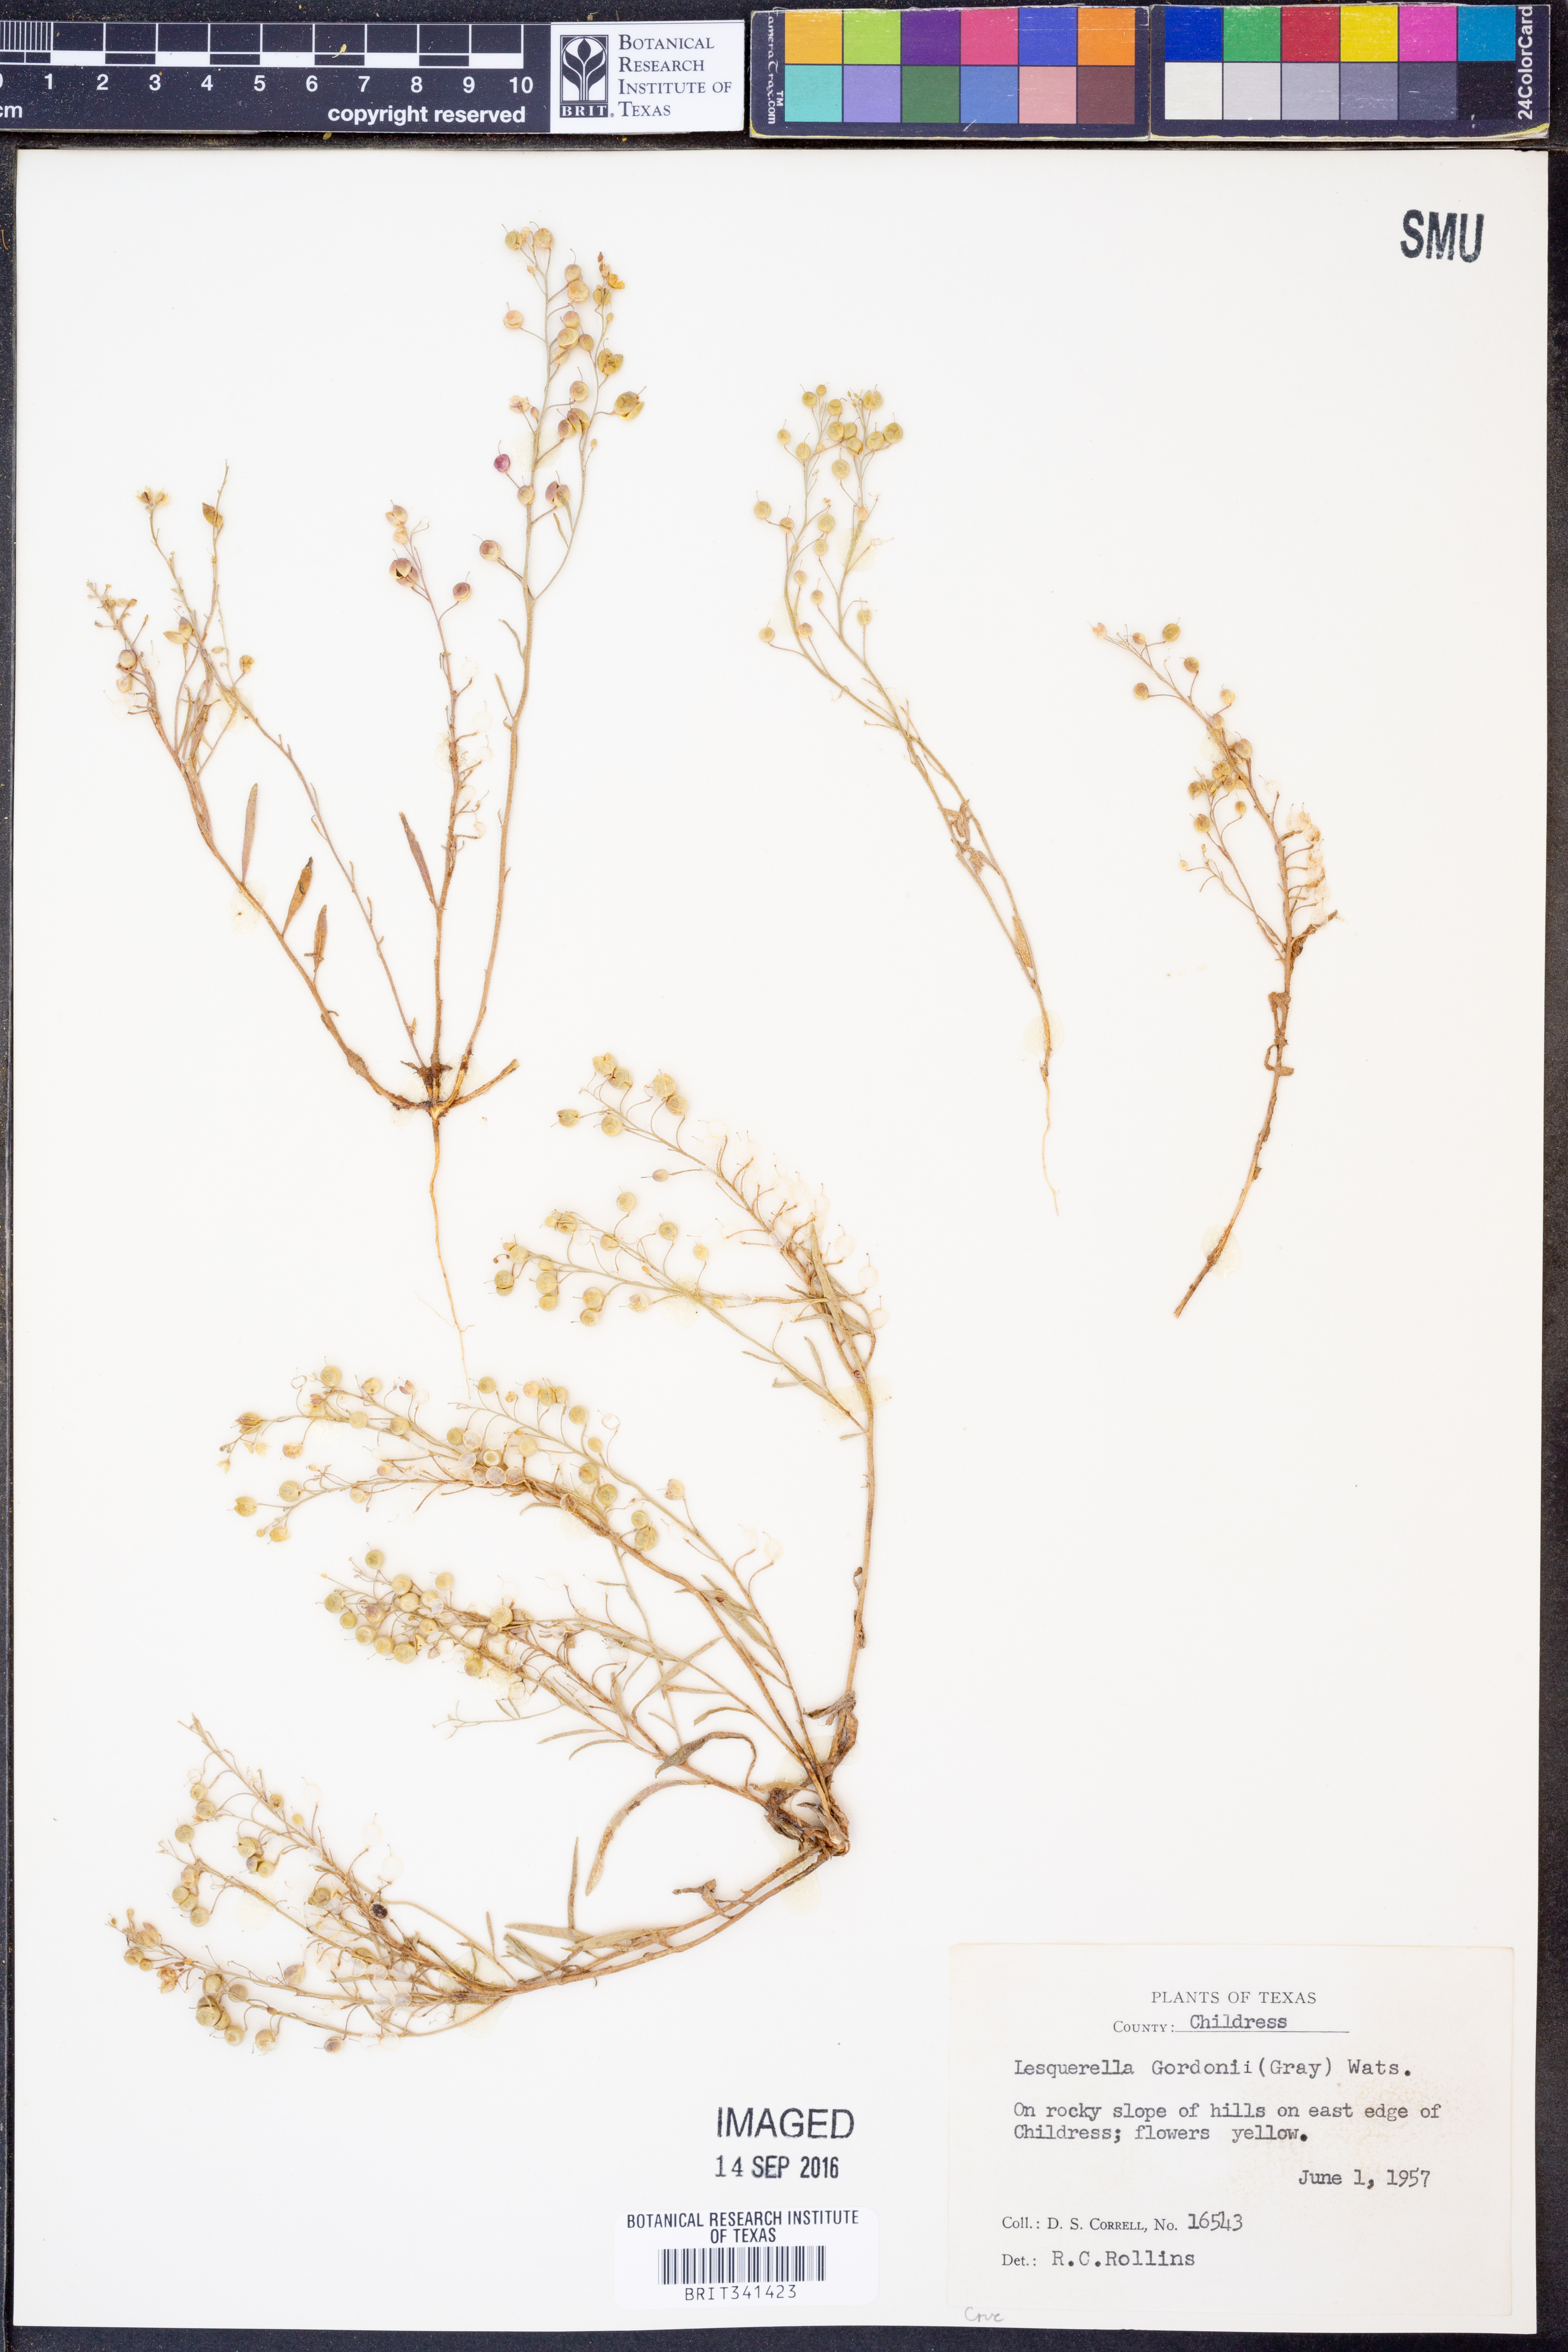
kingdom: Plantae
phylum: Tracheophyta
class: Magnoliopsida
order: Brassicales
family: Brassicaceae
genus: Physaria
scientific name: Physaria gordonii
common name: Gordon's bladderpod
